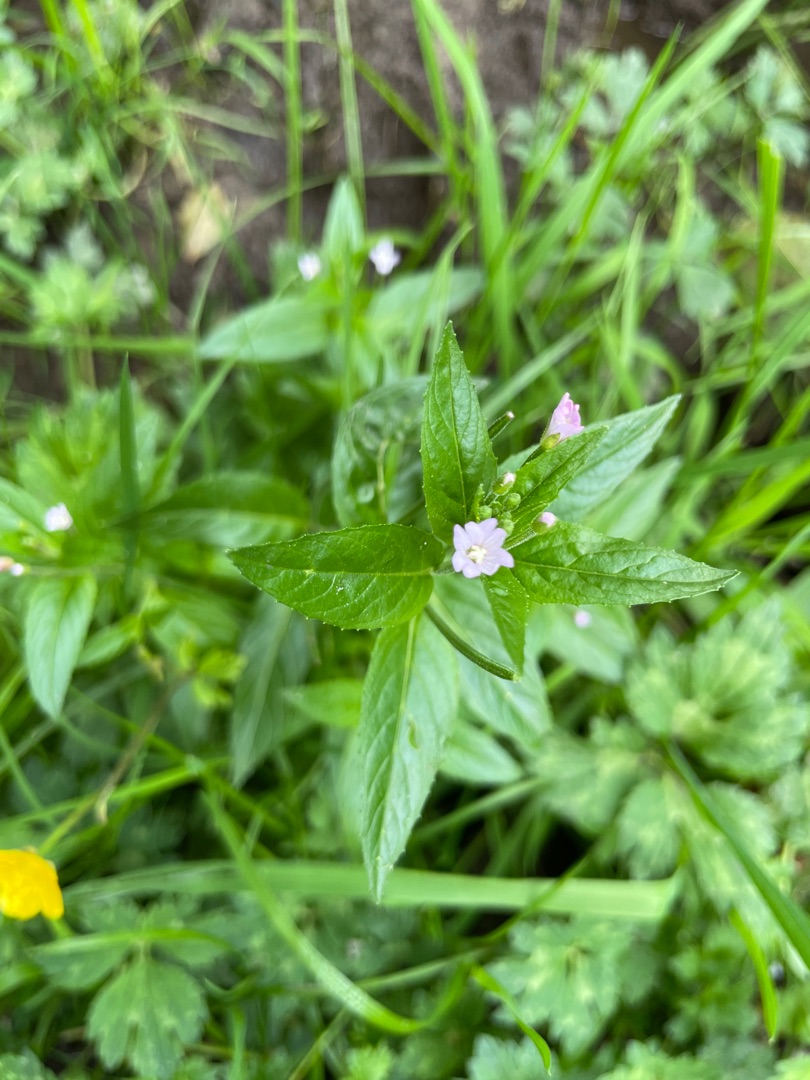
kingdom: Plantae
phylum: Tracheophyta
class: Magnoliopsida
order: Myrtales
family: Onagraceae
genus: Epilobium
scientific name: Epilobium ciliatum
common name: Alaska-dueurt
